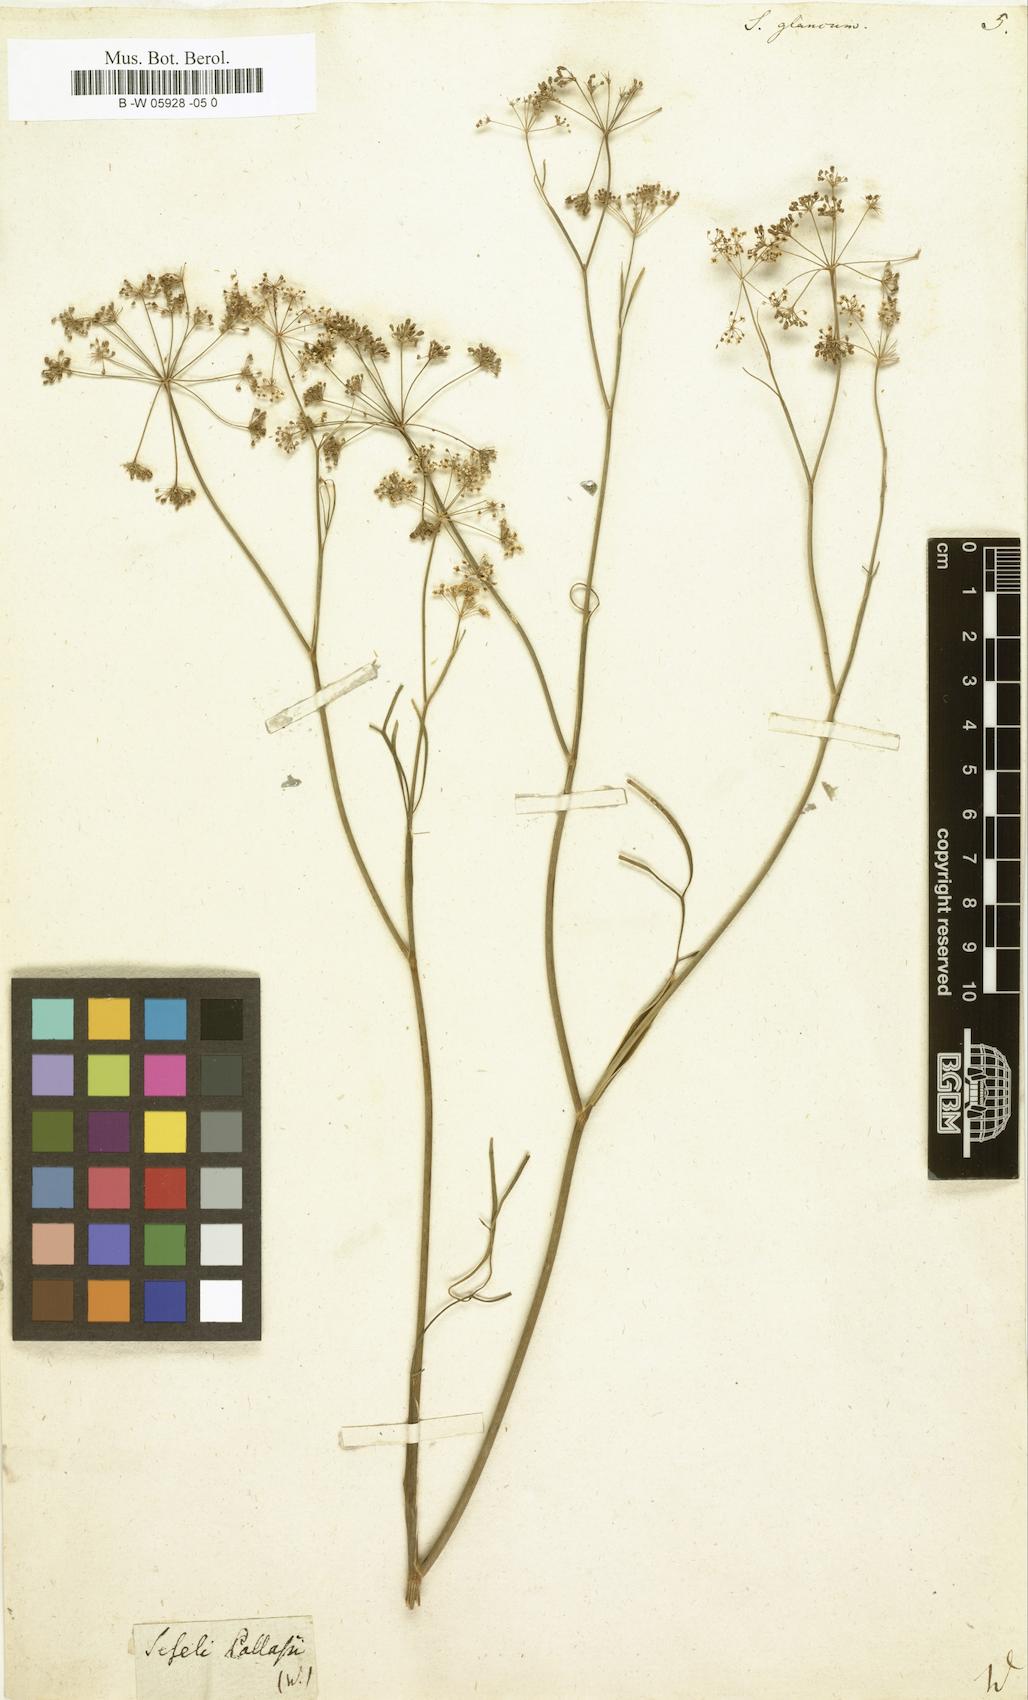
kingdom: Plantae
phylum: Tracheophyta
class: Magnoliopsida
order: Apiales
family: Apiaceae
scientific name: Apiaceae
